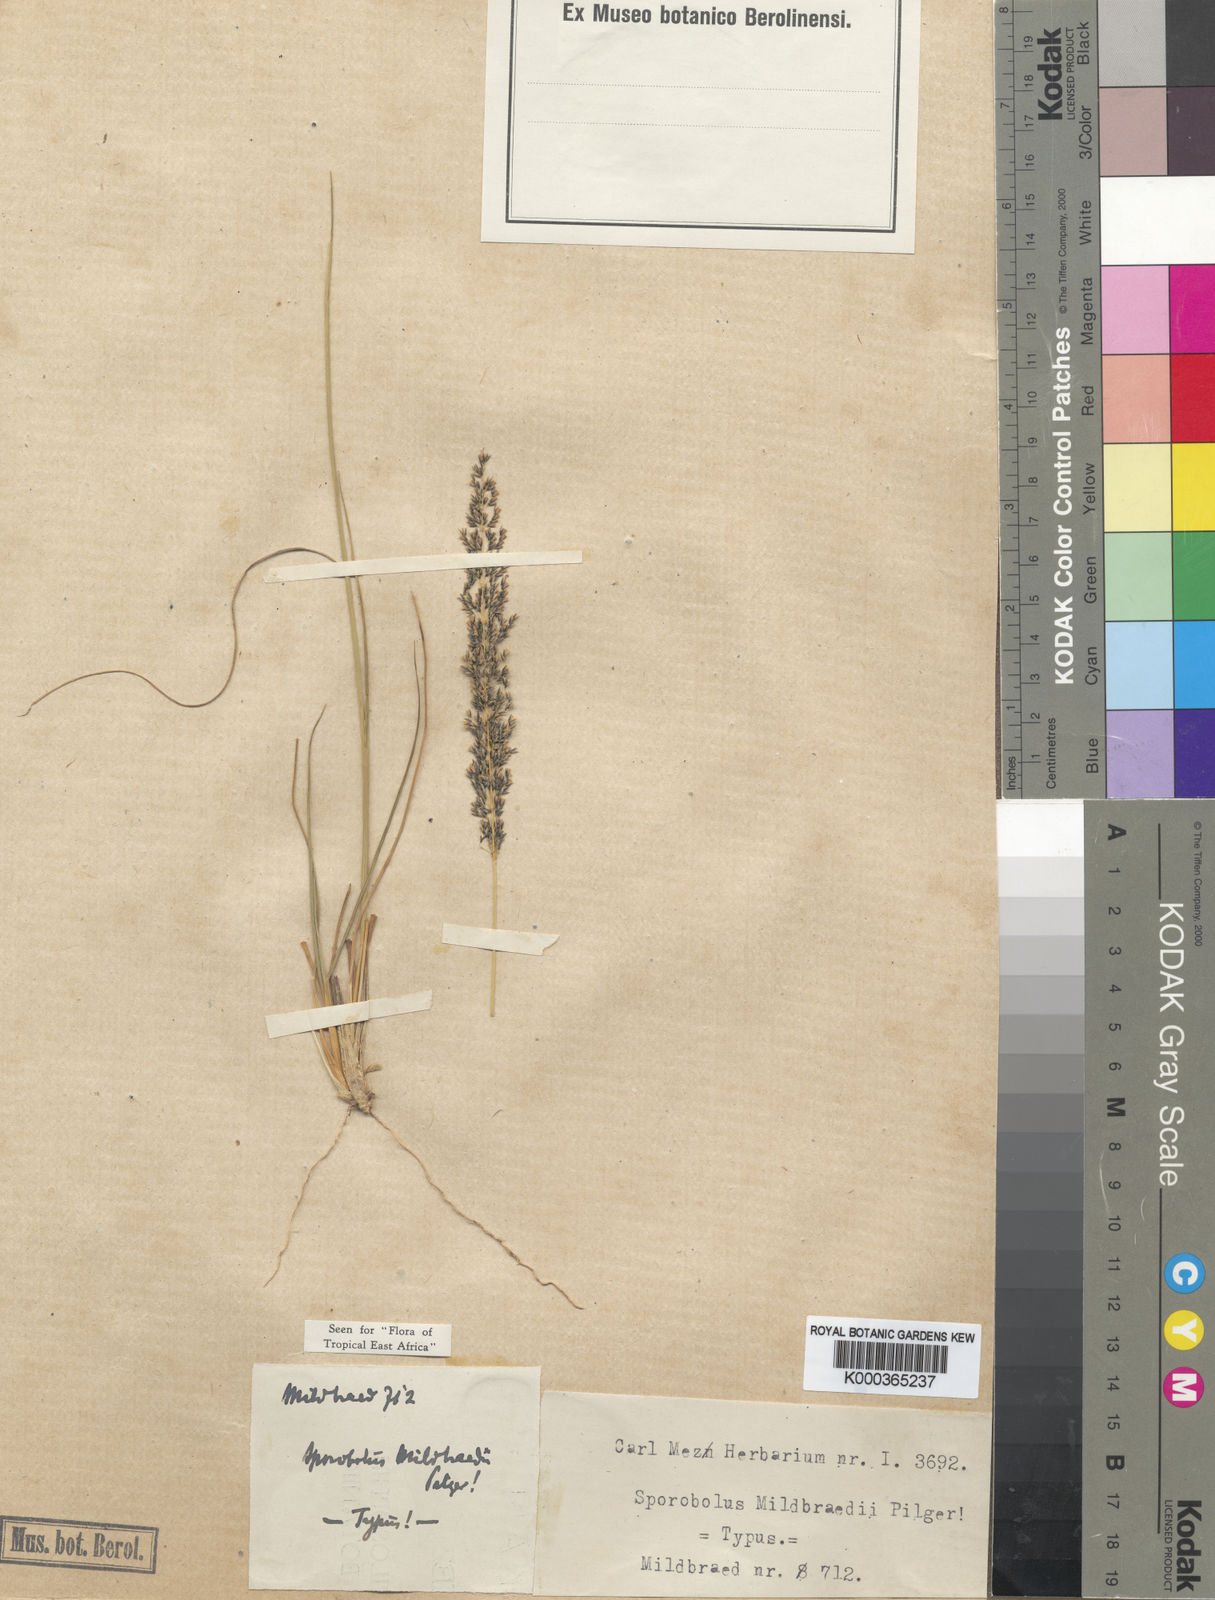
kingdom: Plantae
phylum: Tracheophyta
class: Liliopsida
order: Poales
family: Poaceae
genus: Sporobolus
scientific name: Sporobolus mildbraedii
